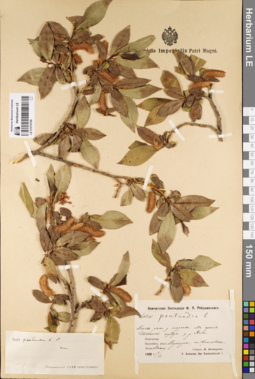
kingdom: Plantae
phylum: Tracheophyta
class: Magnoliopsida
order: Malpighiales
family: Salicaceae
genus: Salix
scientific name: Salix pseudopentandra
